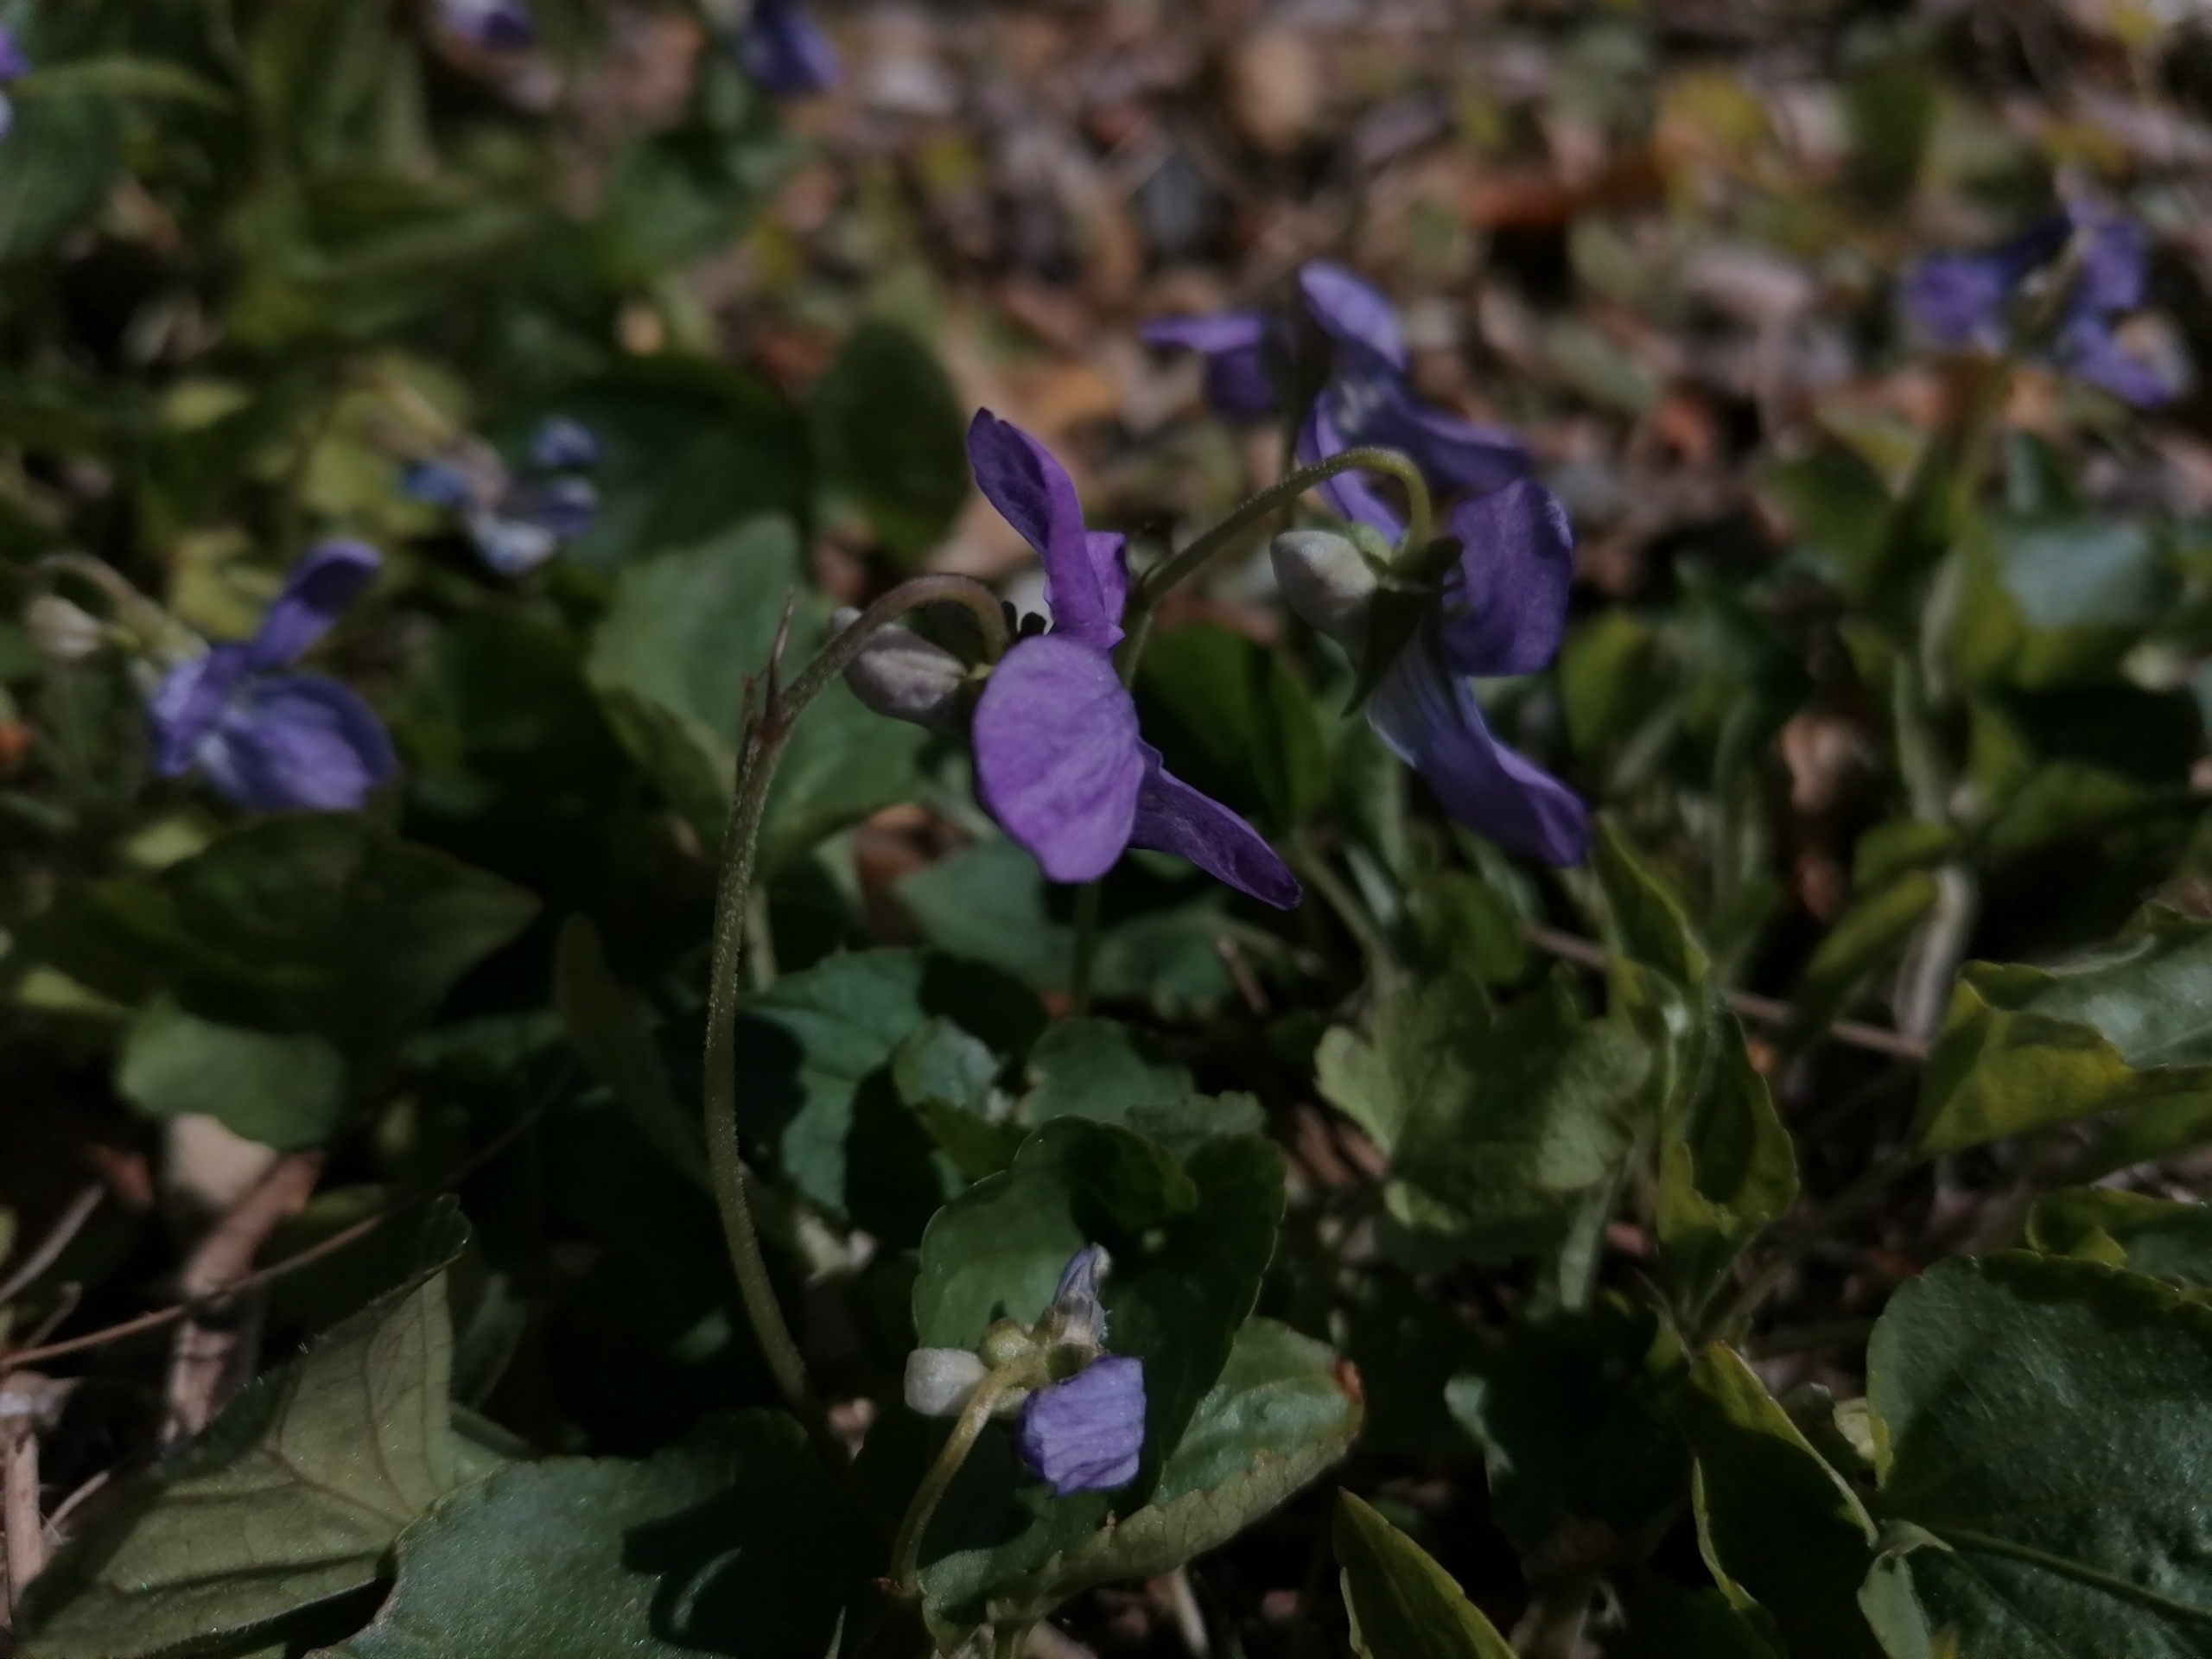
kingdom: Plantae
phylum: Tracheophyta
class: Magnoliopsida
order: Malpighiales
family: Violaceae
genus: Viola
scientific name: Viola riviniana
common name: Krat-viol
